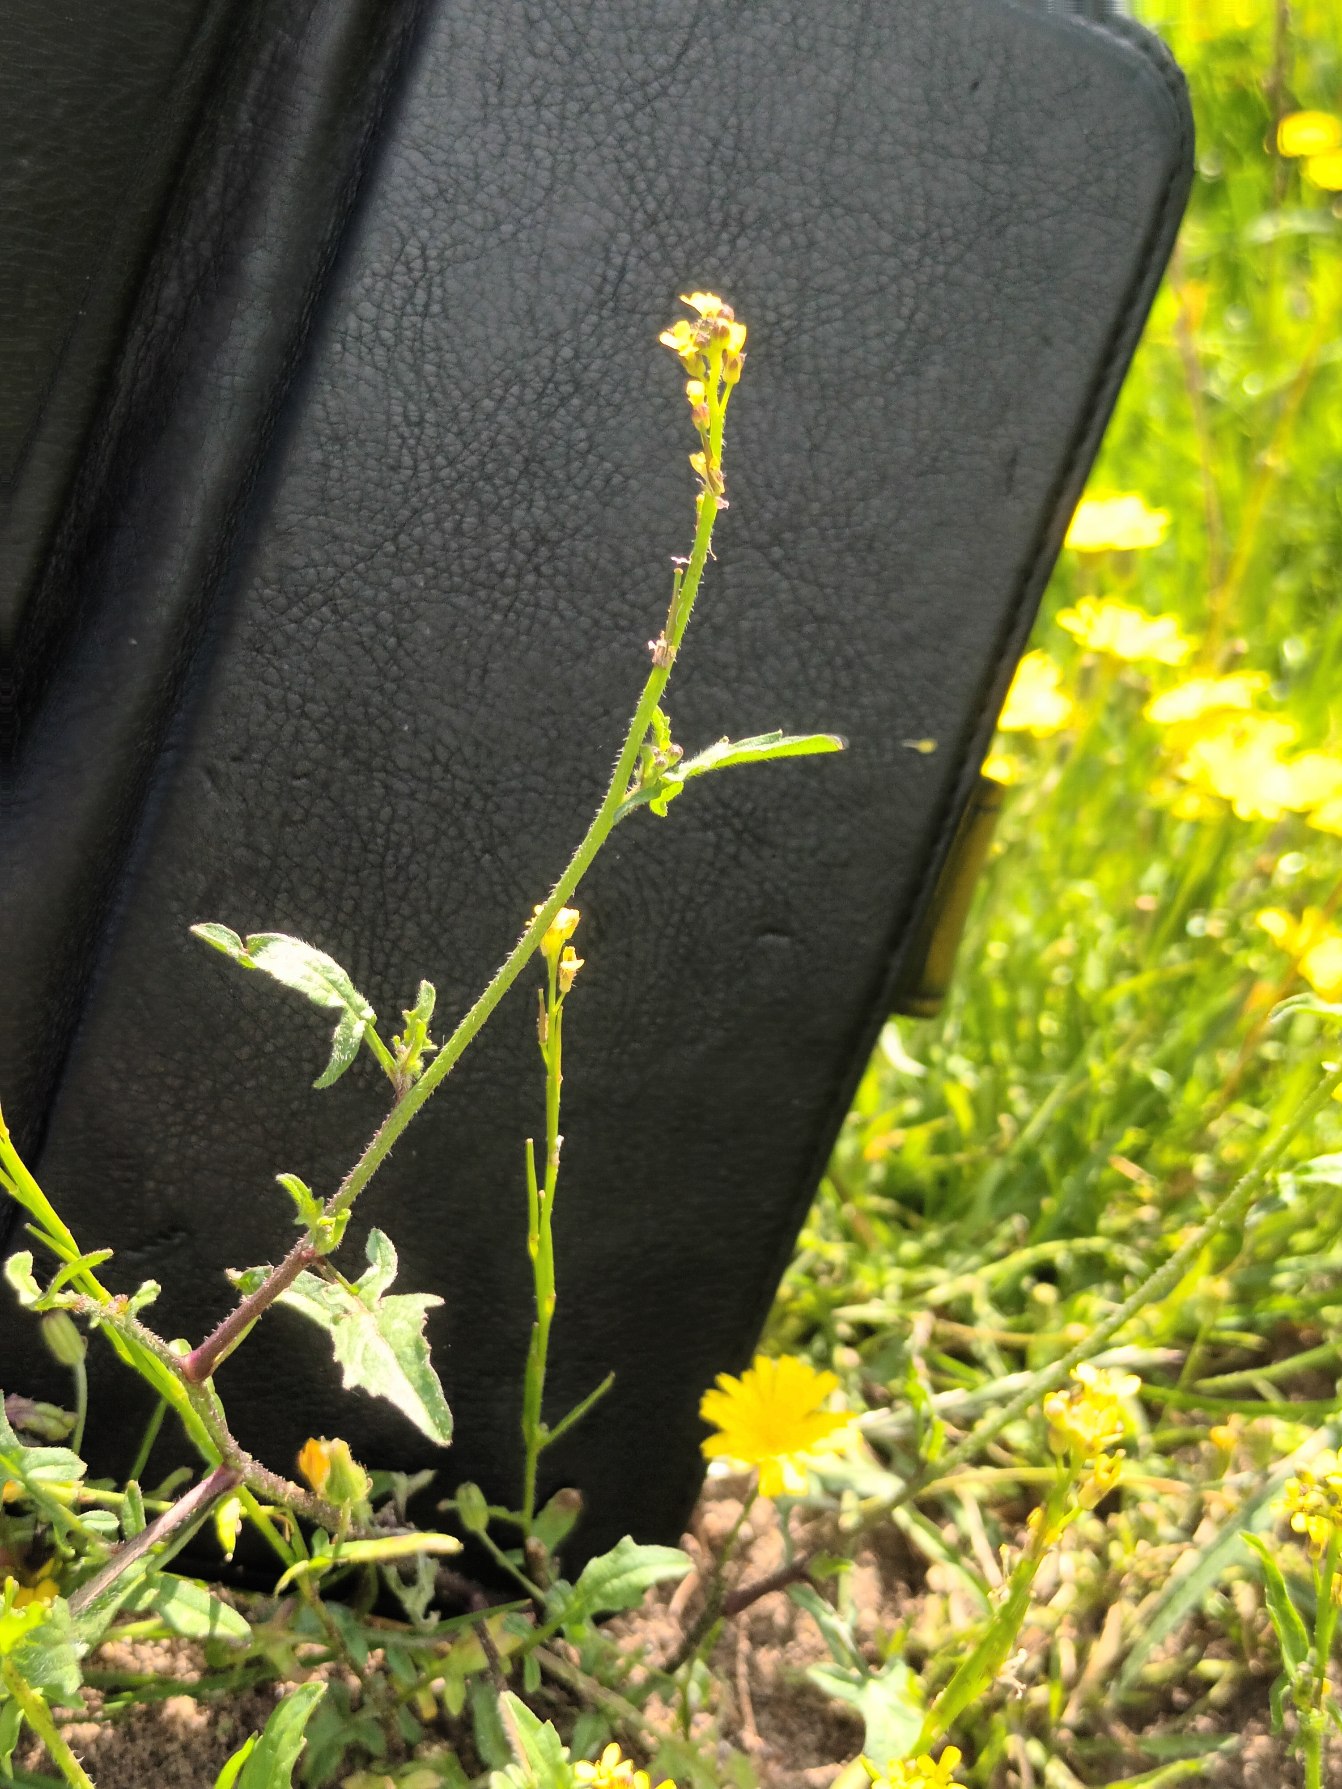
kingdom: Plantae
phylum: Tracheophyta
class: Magnoliopsida
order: Brassicales
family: Brassicaceae
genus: Sisymbrium
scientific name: Sisymbrium officinale
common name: Rank vejsennep
